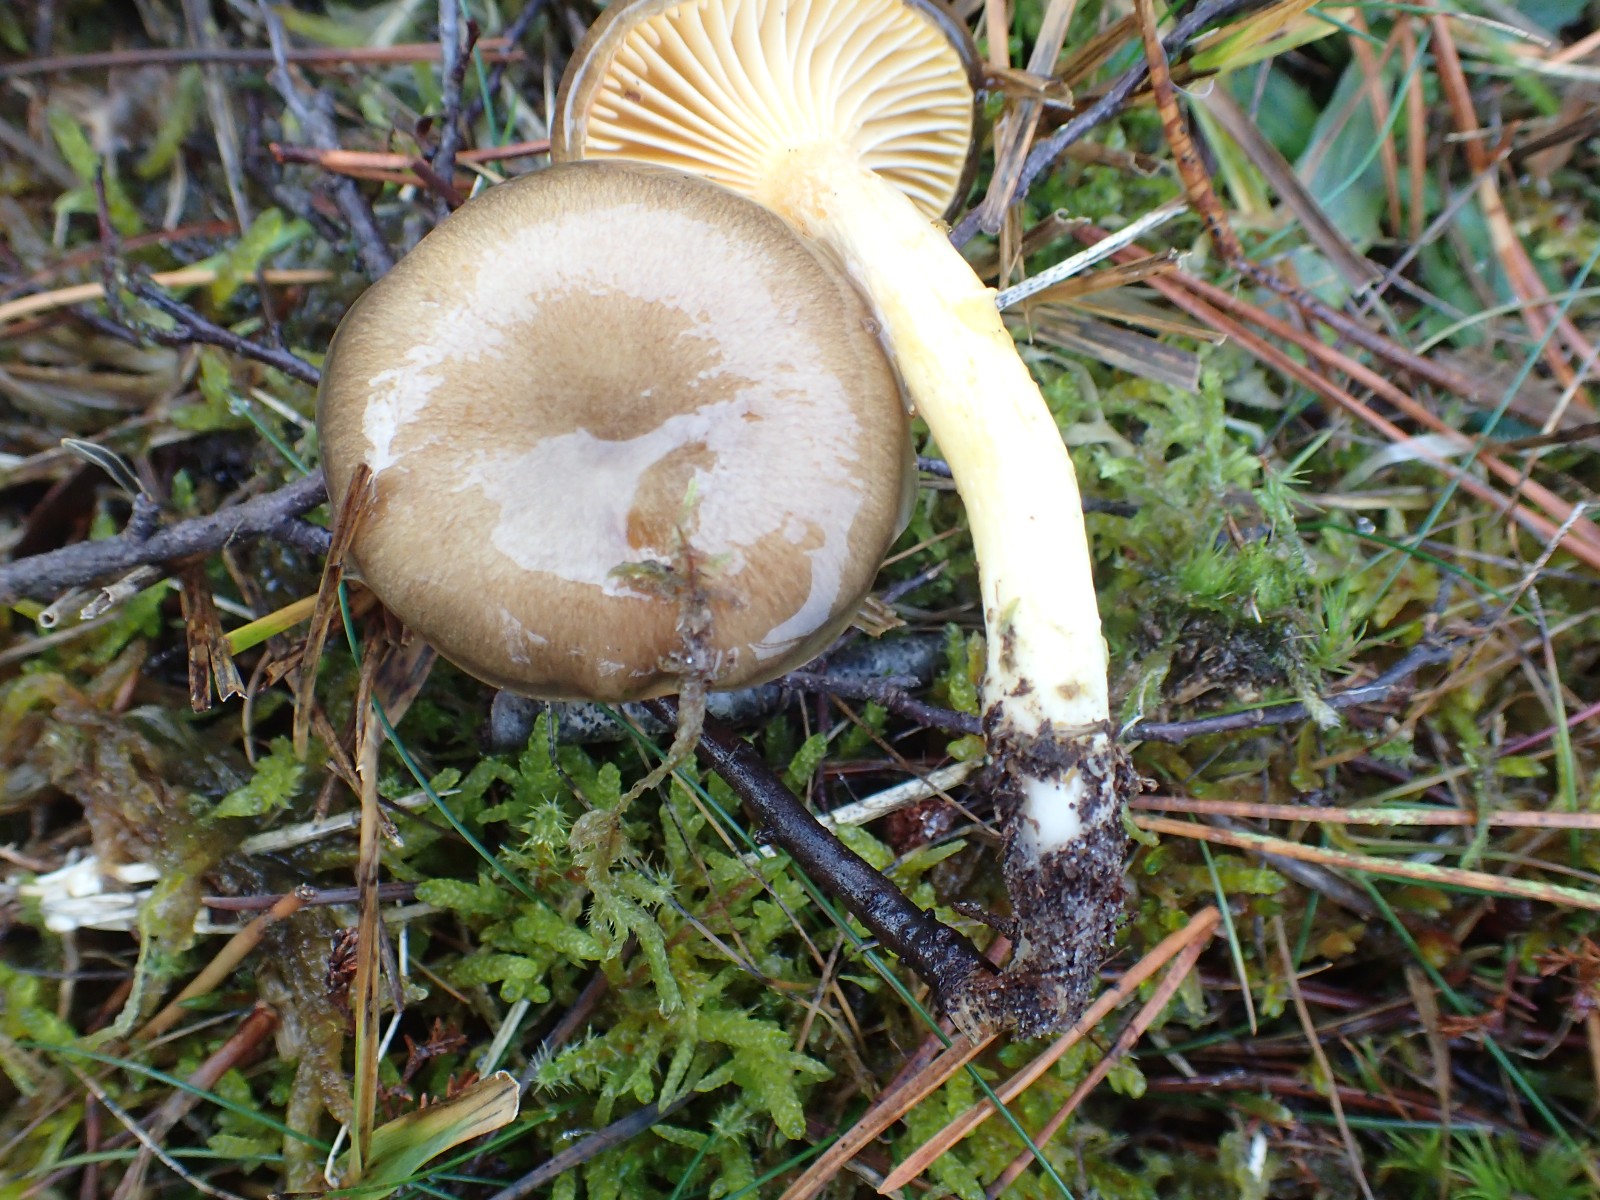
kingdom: Fungi
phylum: Basidiomycota
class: Agaricomycetes
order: Agaricales
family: Hygrophoraceae
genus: Hygrophorus
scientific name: Hygrophorus hypothejus
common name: frost-sneglehat
